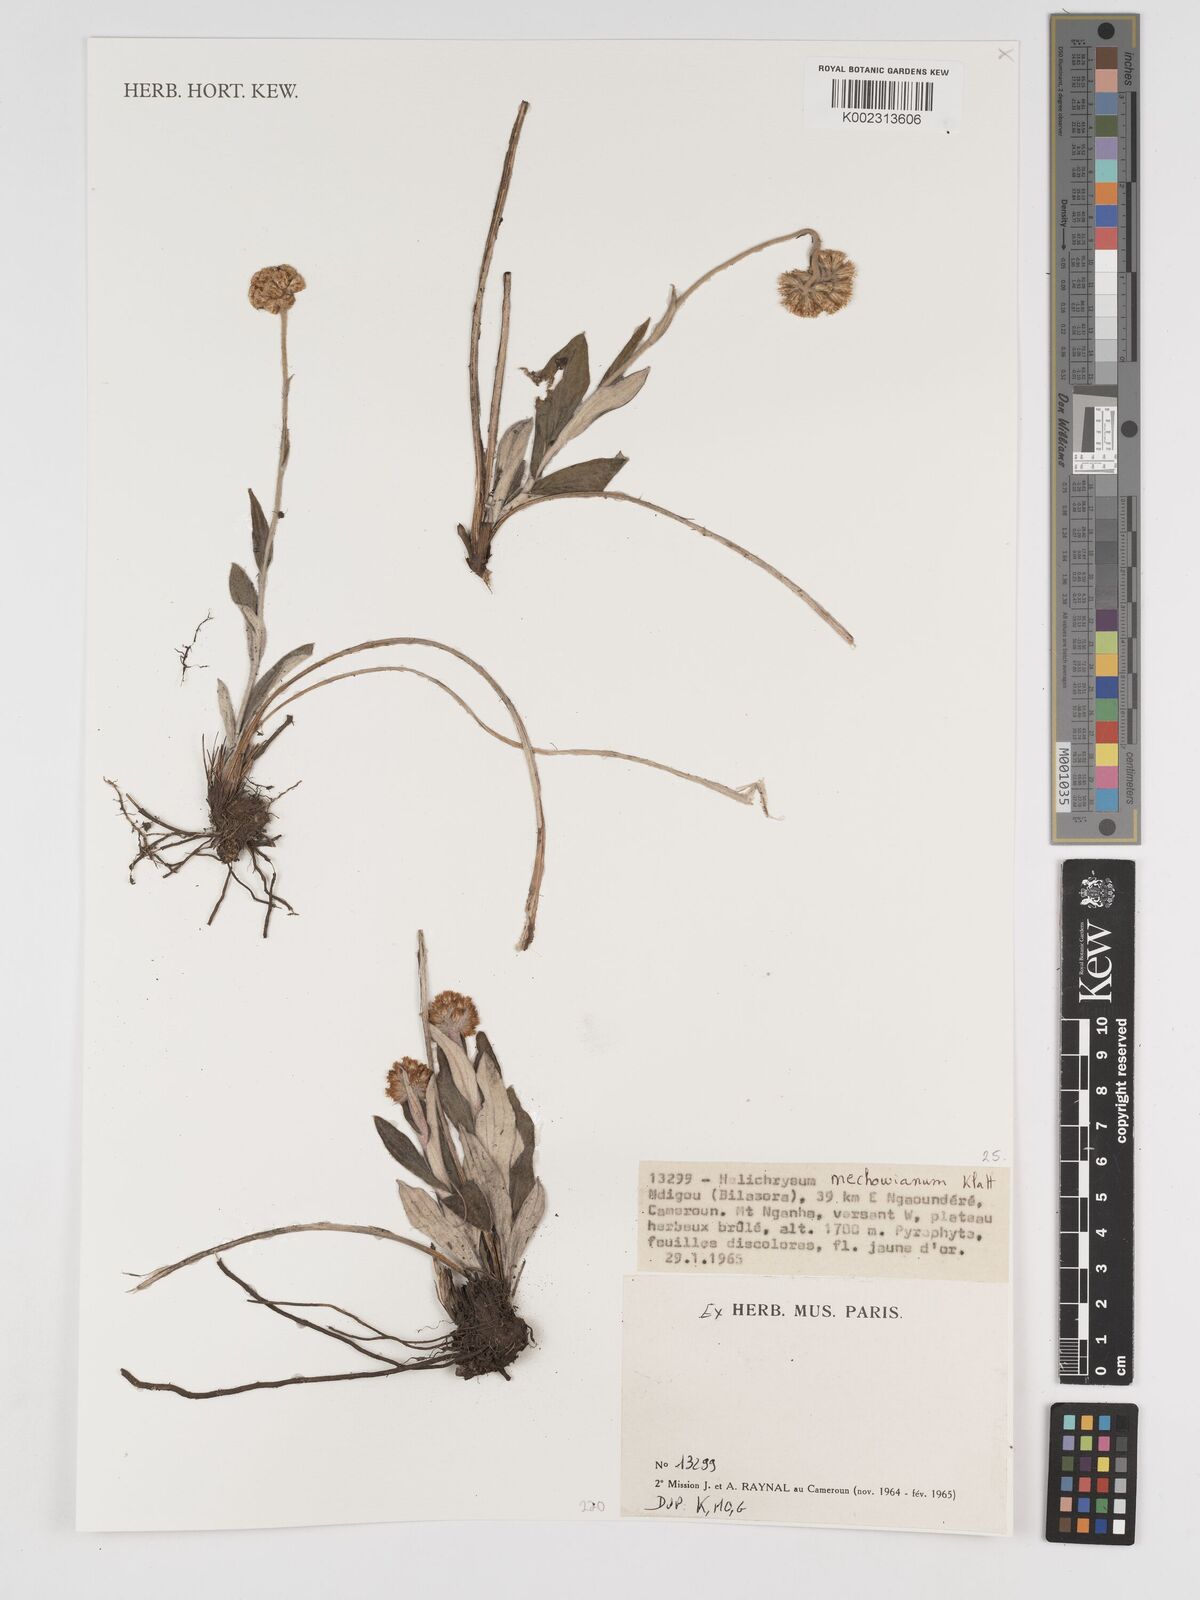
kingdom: Plantae
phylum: Tracheophyta
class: Magnoliopsida
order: Asterales
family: Asteraceae
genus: Helichrysum
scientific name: Helichrysum mechowianum
